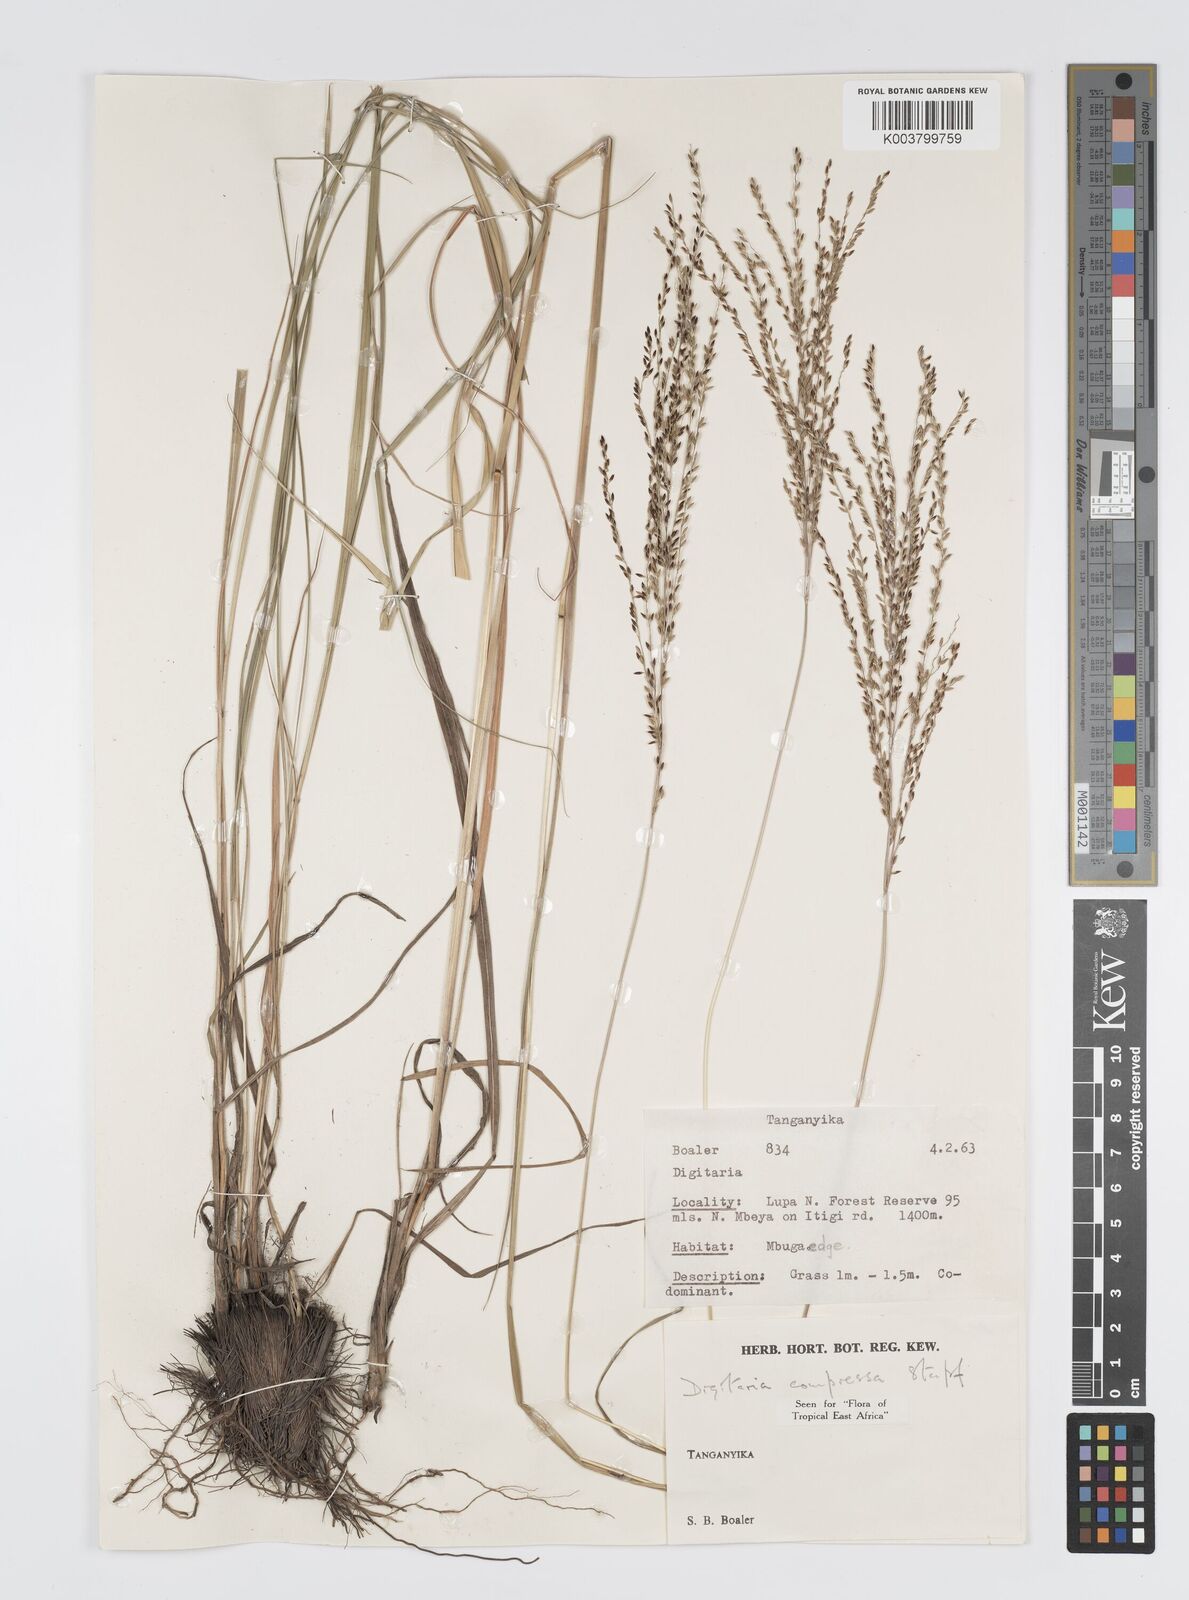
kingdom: Plantae
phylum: Tracheophyta
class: Liliopsida
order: Poales
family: Poaceae
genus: Digitaria
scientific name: Digitaria compressa
